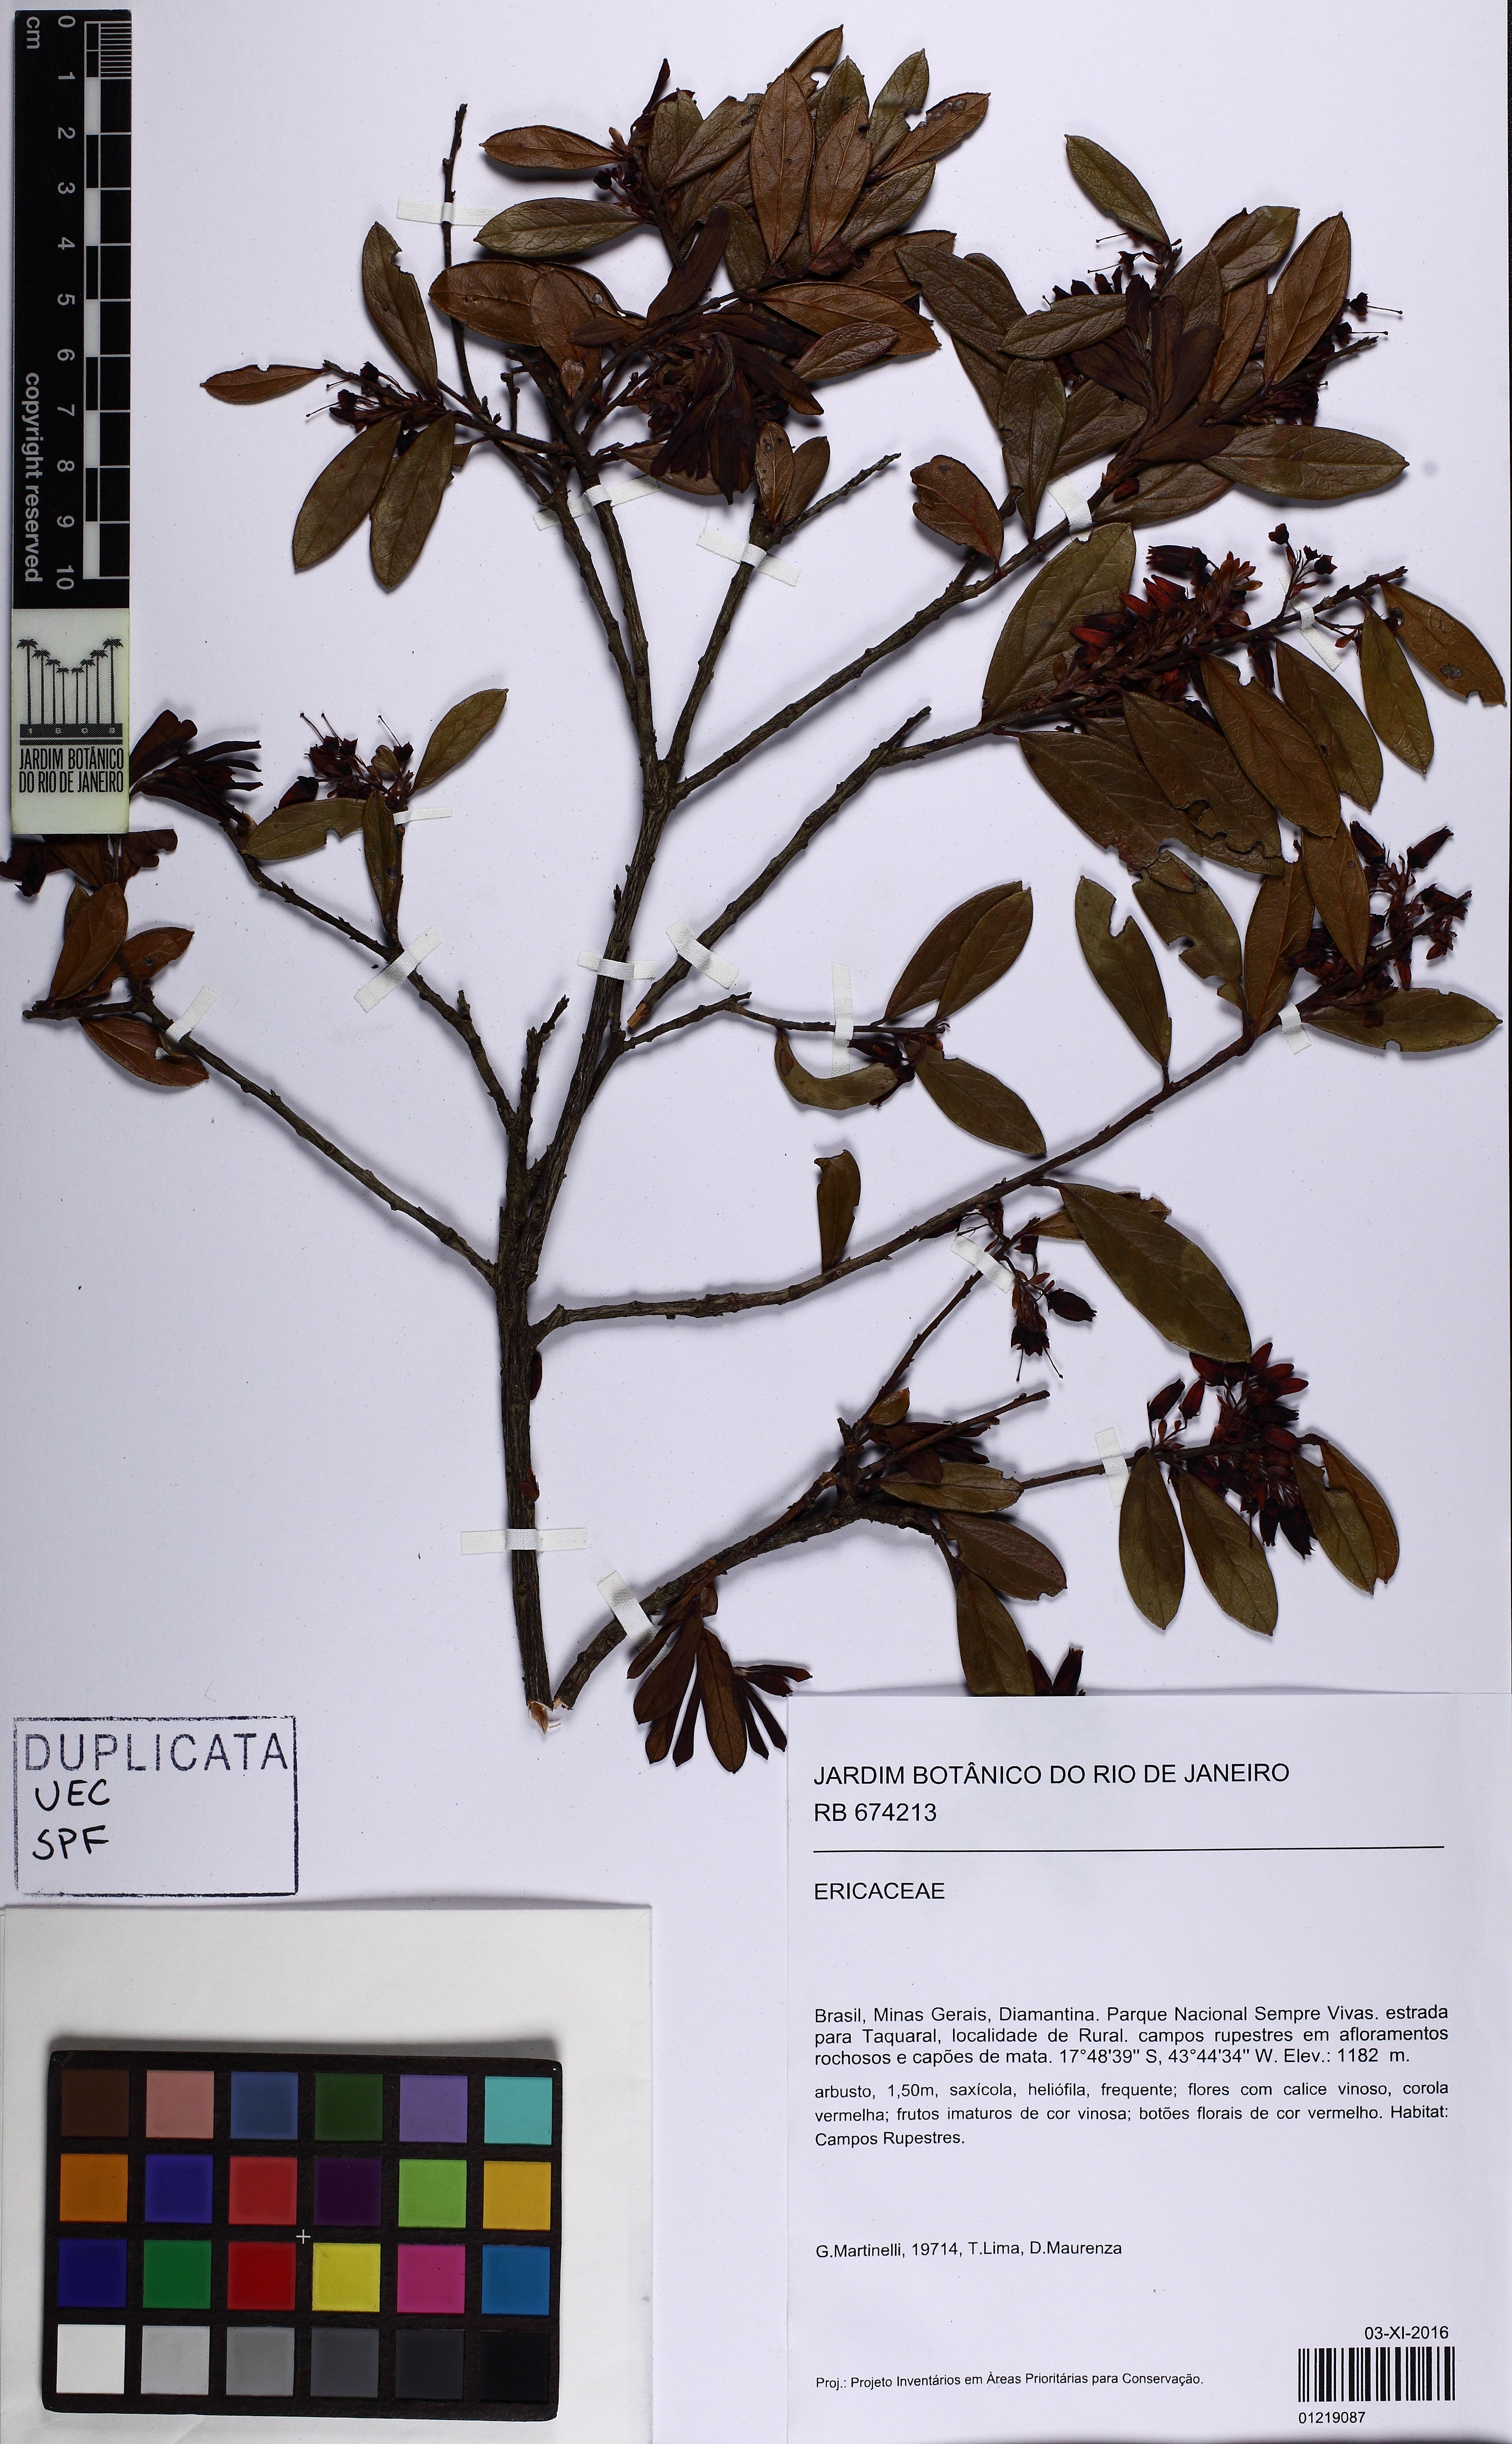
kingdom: Plantae
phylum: Tracheophyta
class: Magnoliopsida
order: Ericales
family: Ericaceae
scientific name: Ericaceae
